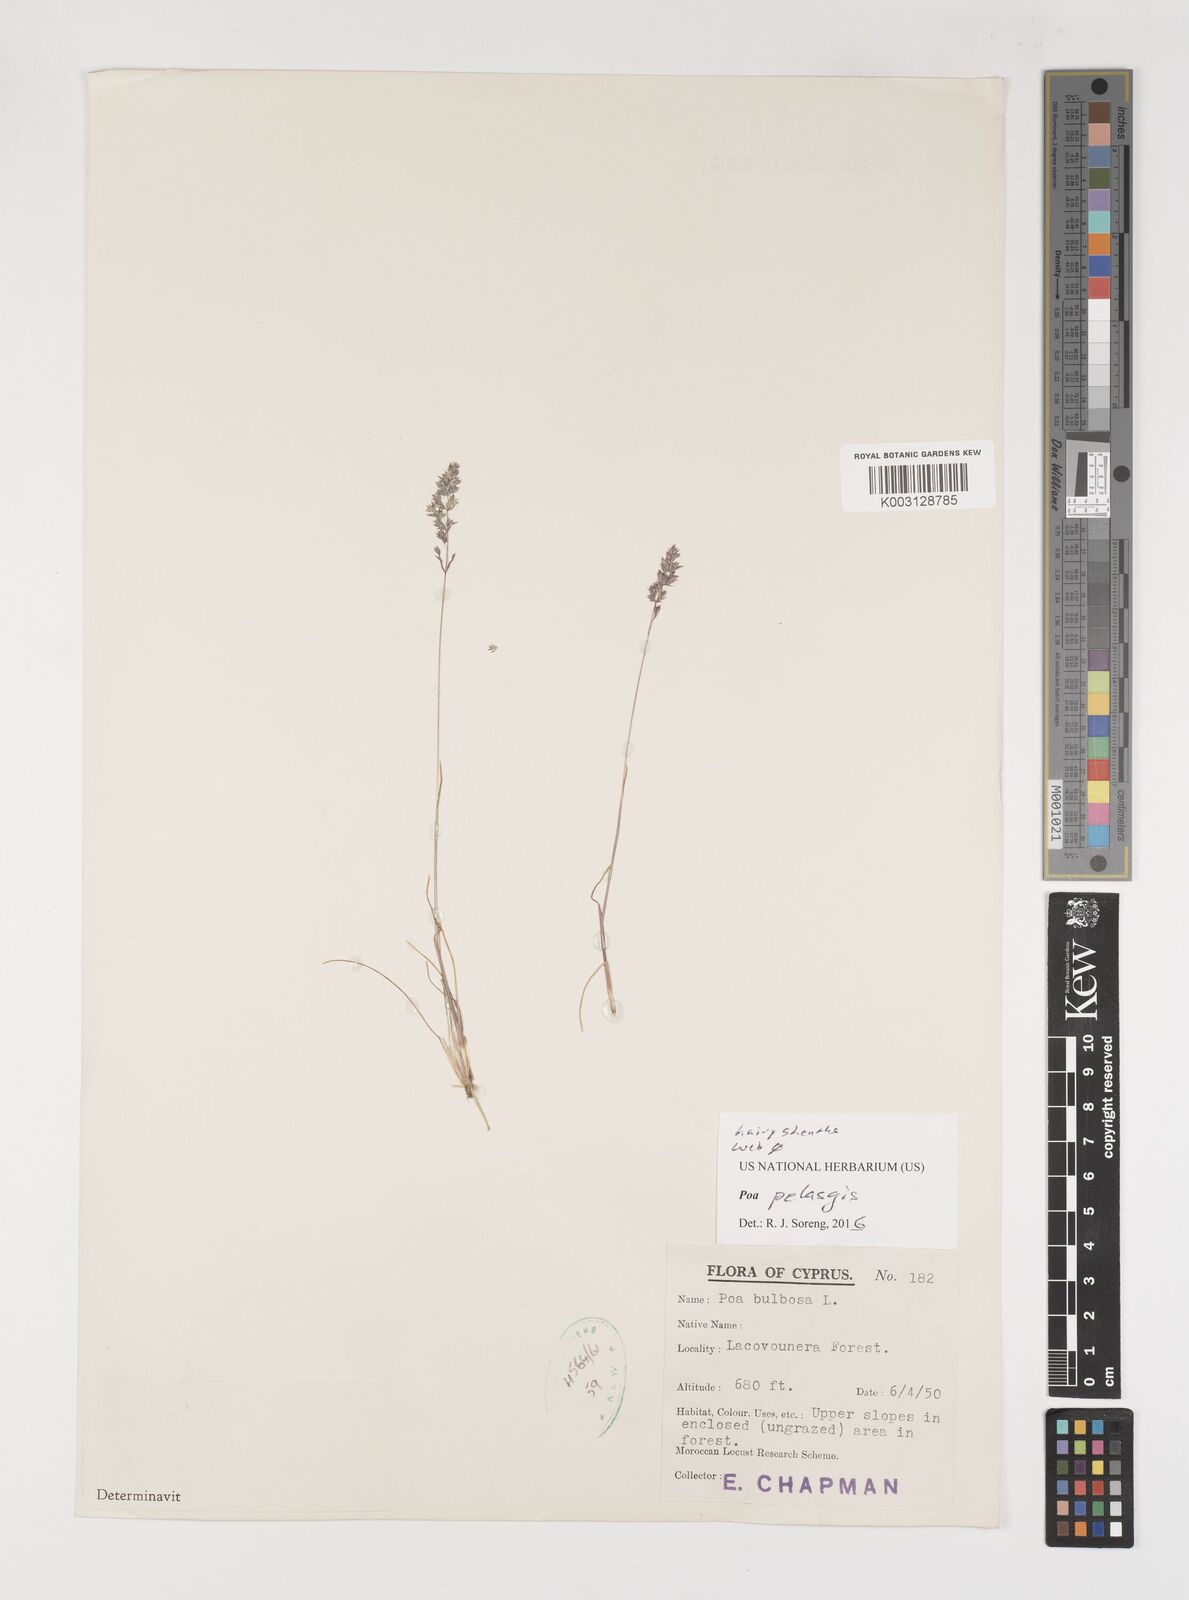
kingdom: Plantae
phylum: Tracheophyta
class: Liliopsida
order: Poales
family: Poaceae
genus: Poa
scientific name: Poa iconia
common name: Konya bluegrass
